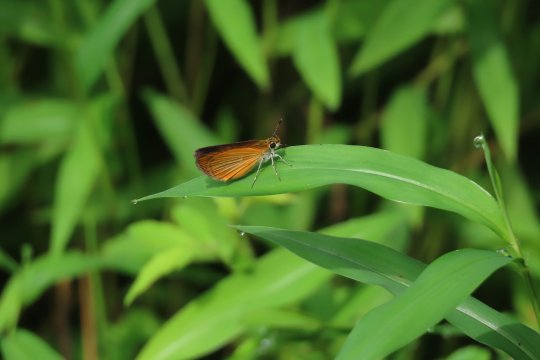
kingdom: Animalia
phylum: Arthropoda
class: Insecta
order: Lepidoptera
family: Hesperiidae
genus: Ancyloxypha
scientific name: Ancyloxypha numitor
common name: Least Skipper
